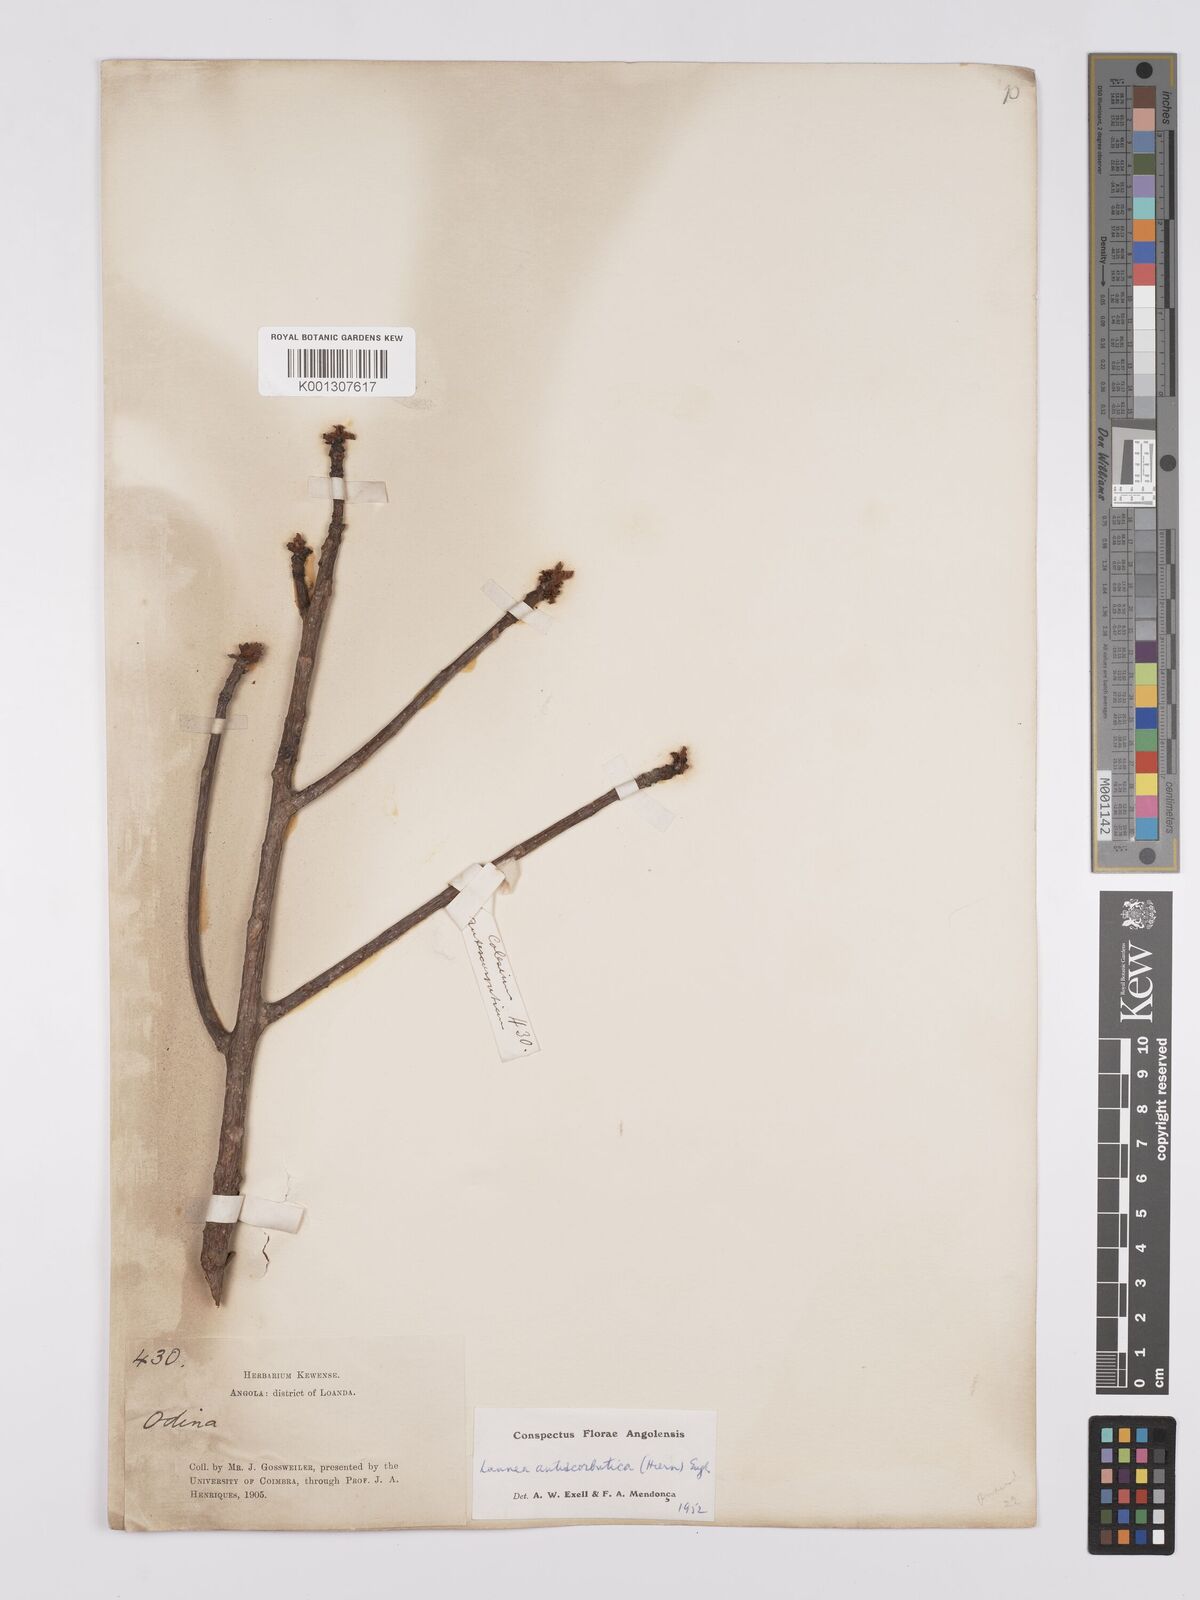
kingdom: Plantae
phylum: Tracheophyta
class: Magnoliopsida
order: Sapindales
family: Anacardiaceae
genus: Lannea
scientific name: Lannea antiscorbutica
